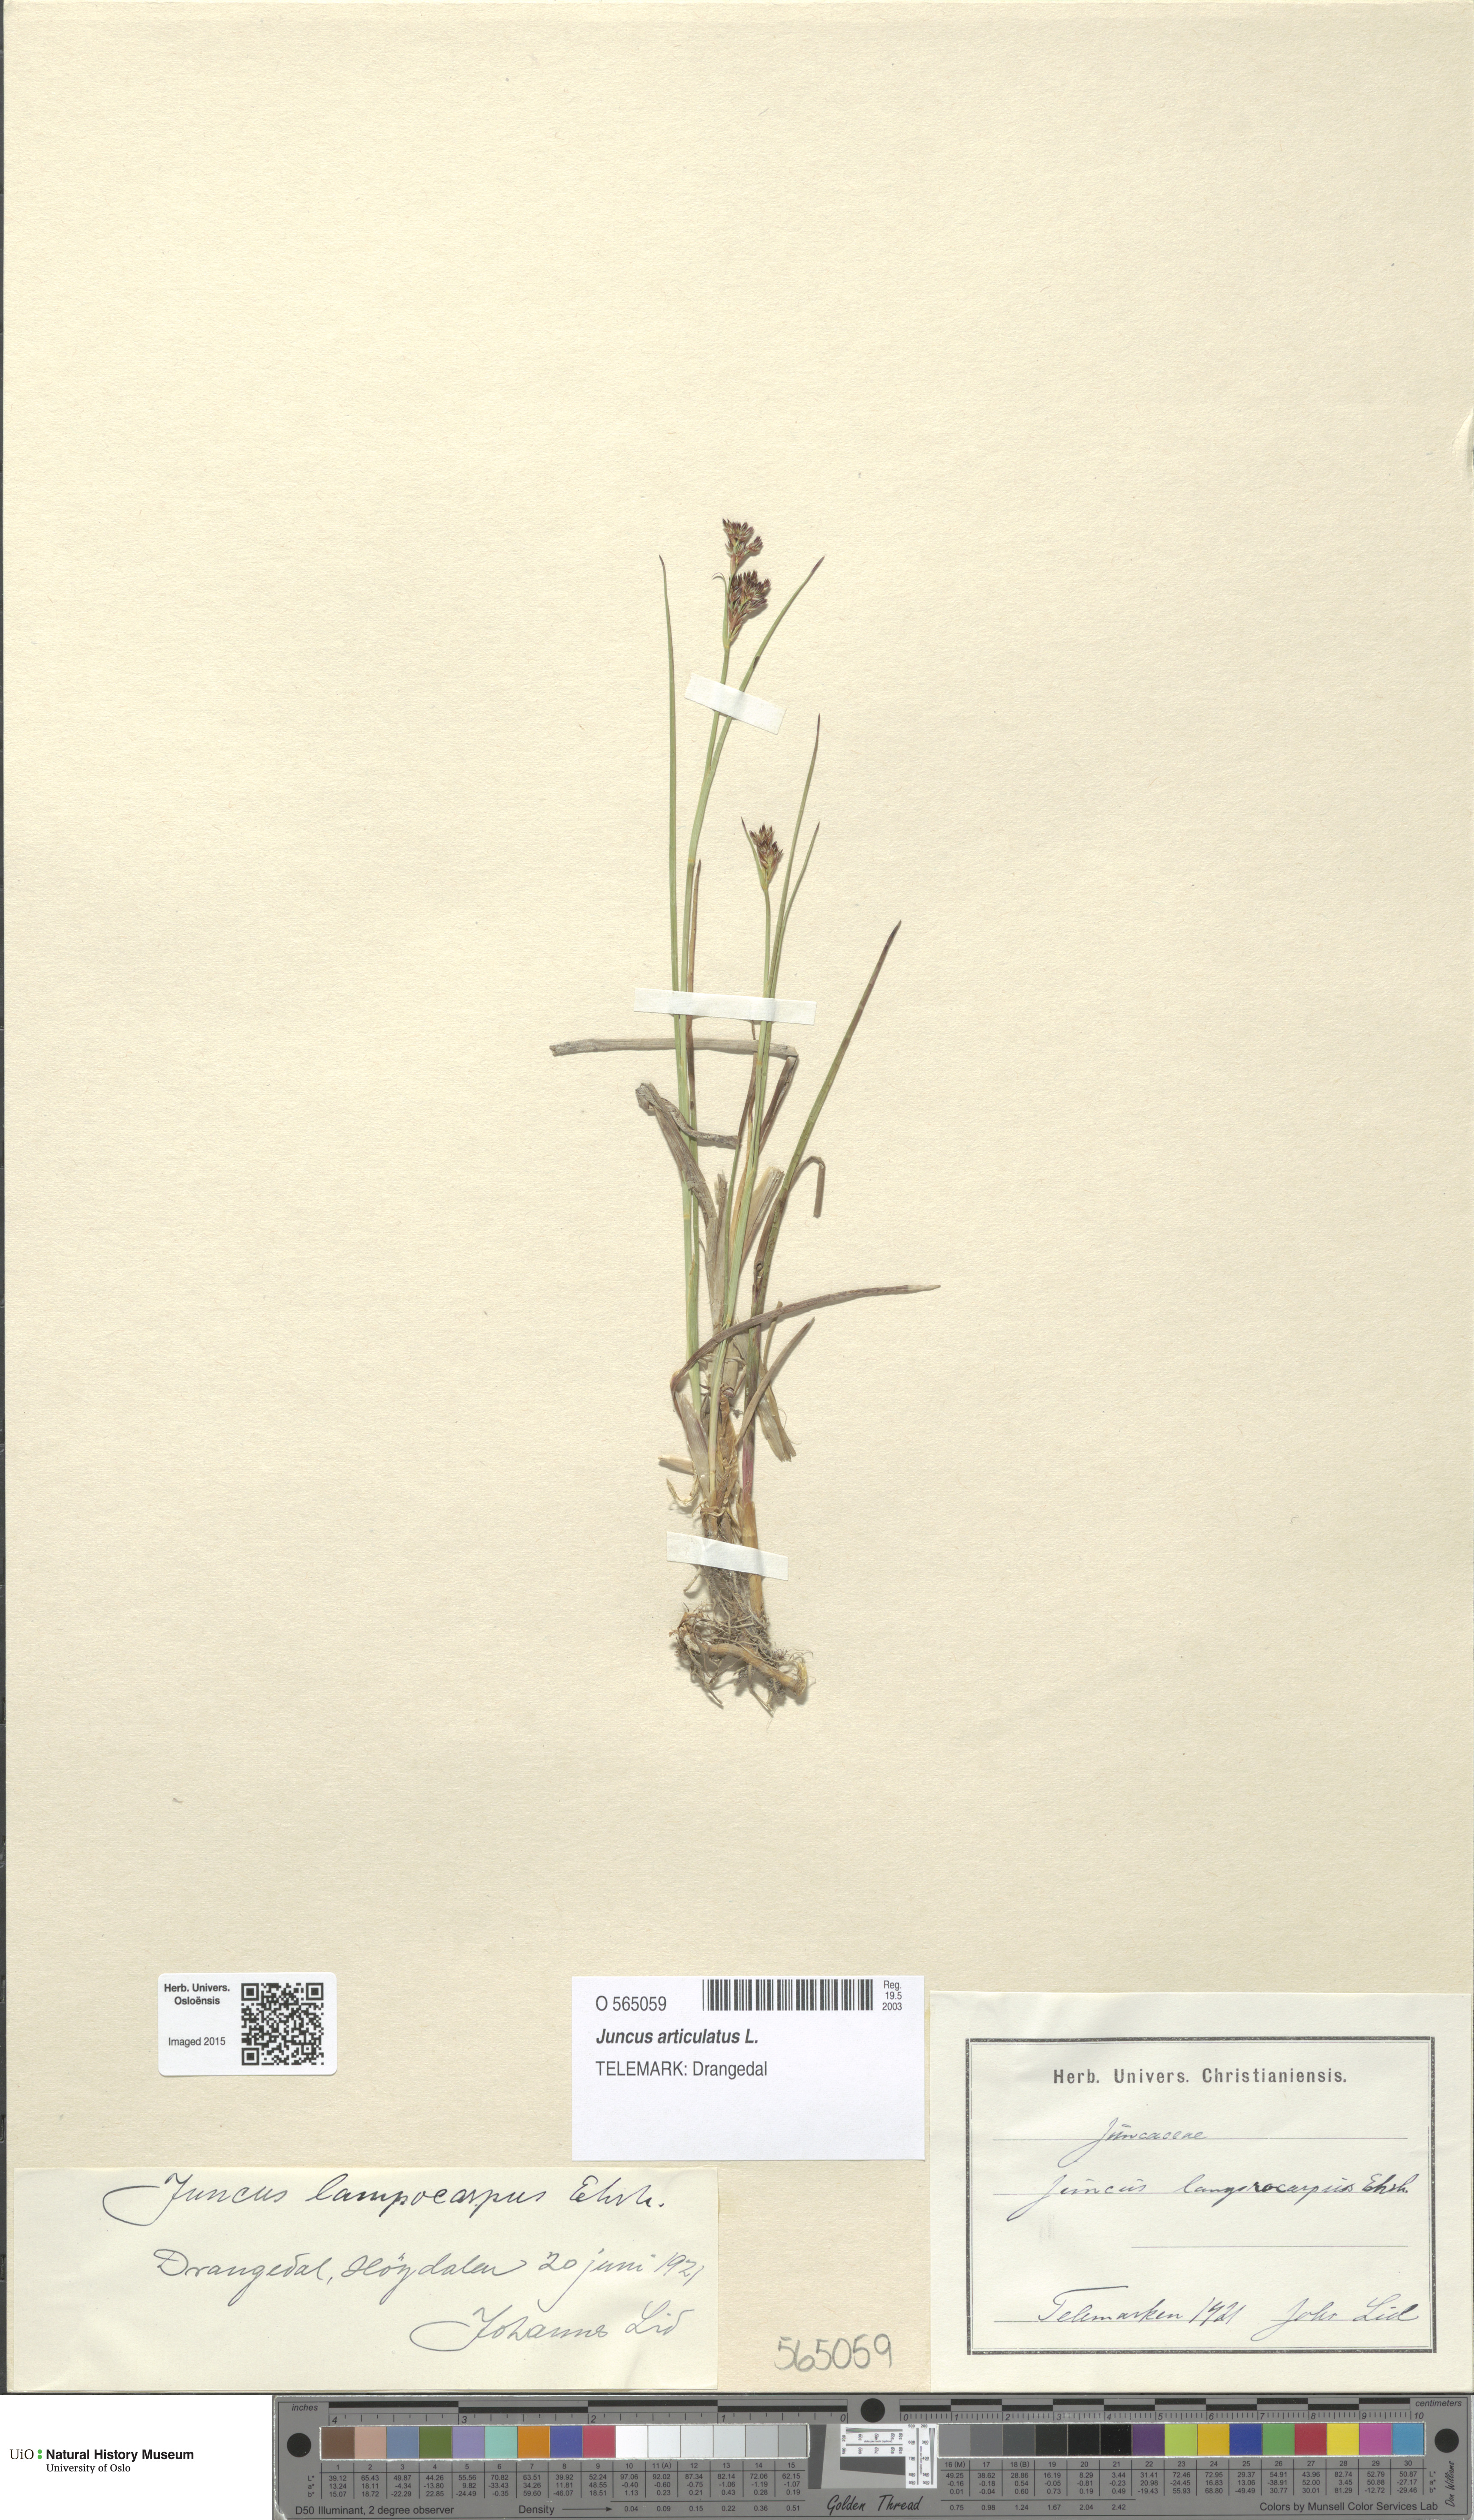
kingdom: Plantae
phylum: Tracheophyta
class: Liliopsida
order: Poales
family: Juncaceae
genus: Juncus
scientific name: Juncus articulatus
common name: Jointed rush
